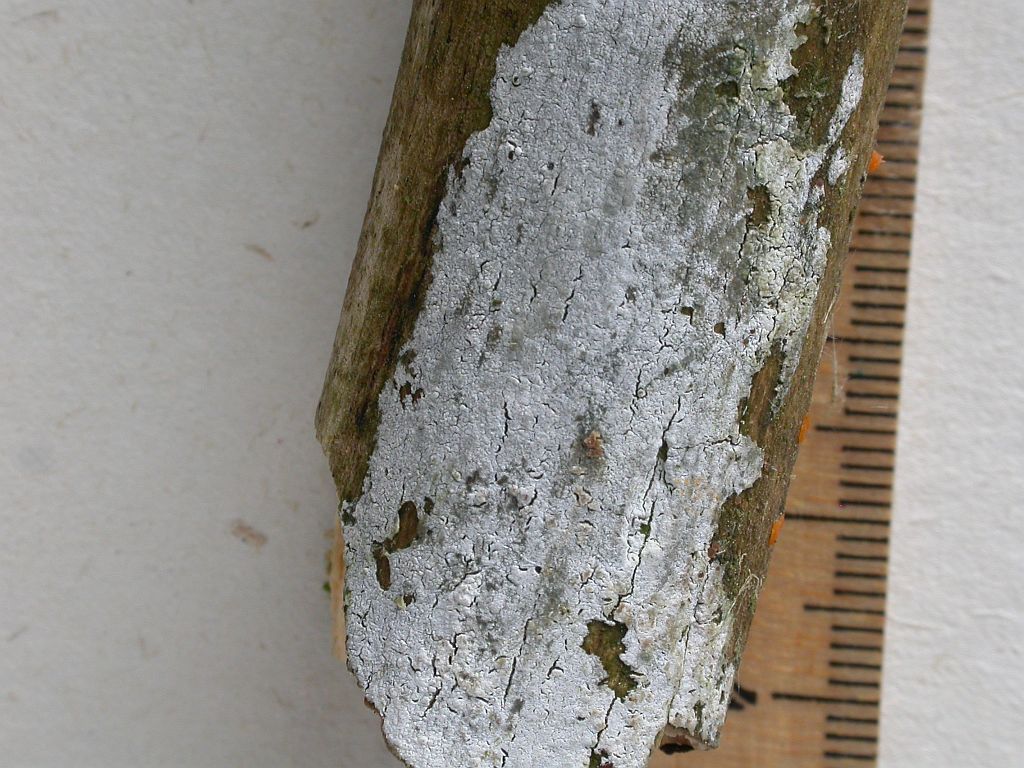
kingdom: Fungi
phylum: Basidiomycota
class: Agaricomycetes
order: Corticiales
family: Corticiaceae
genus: Lyomyces
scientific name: Lyomyces sambuci
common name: almindelig hyldehinde
